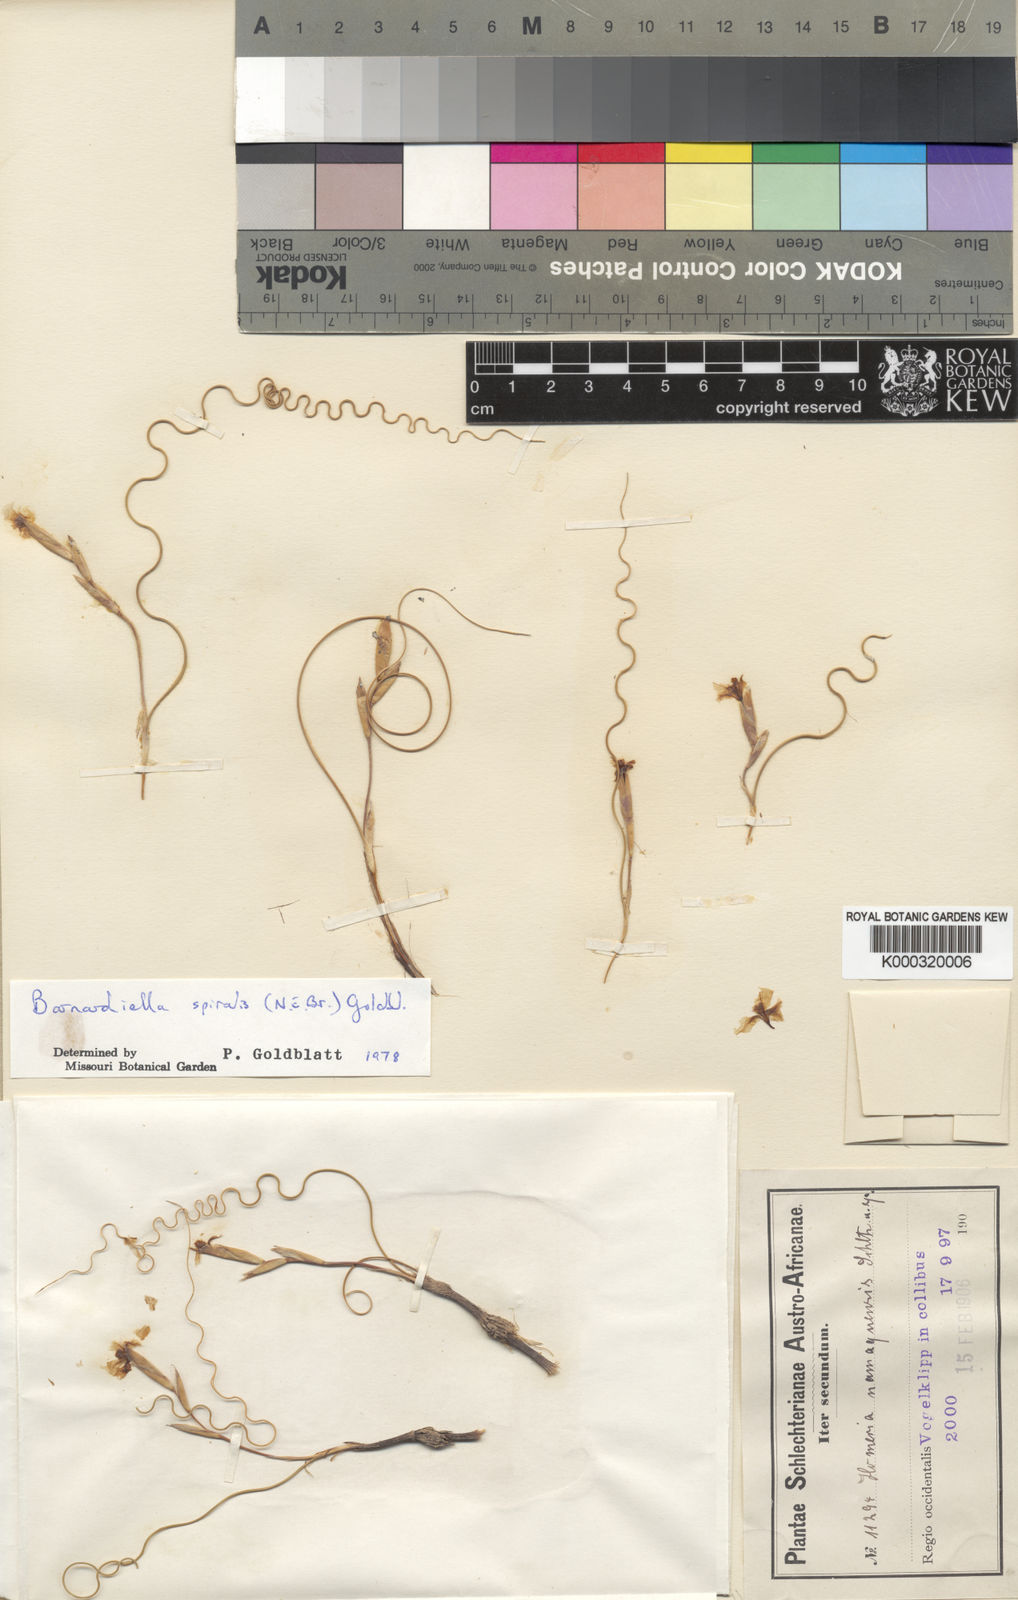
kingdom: Plantae
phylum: Tracheophyta
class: Liliopsida
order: Asparagales
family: Iridaceae
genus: Moraea
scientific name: Moraea herrei
